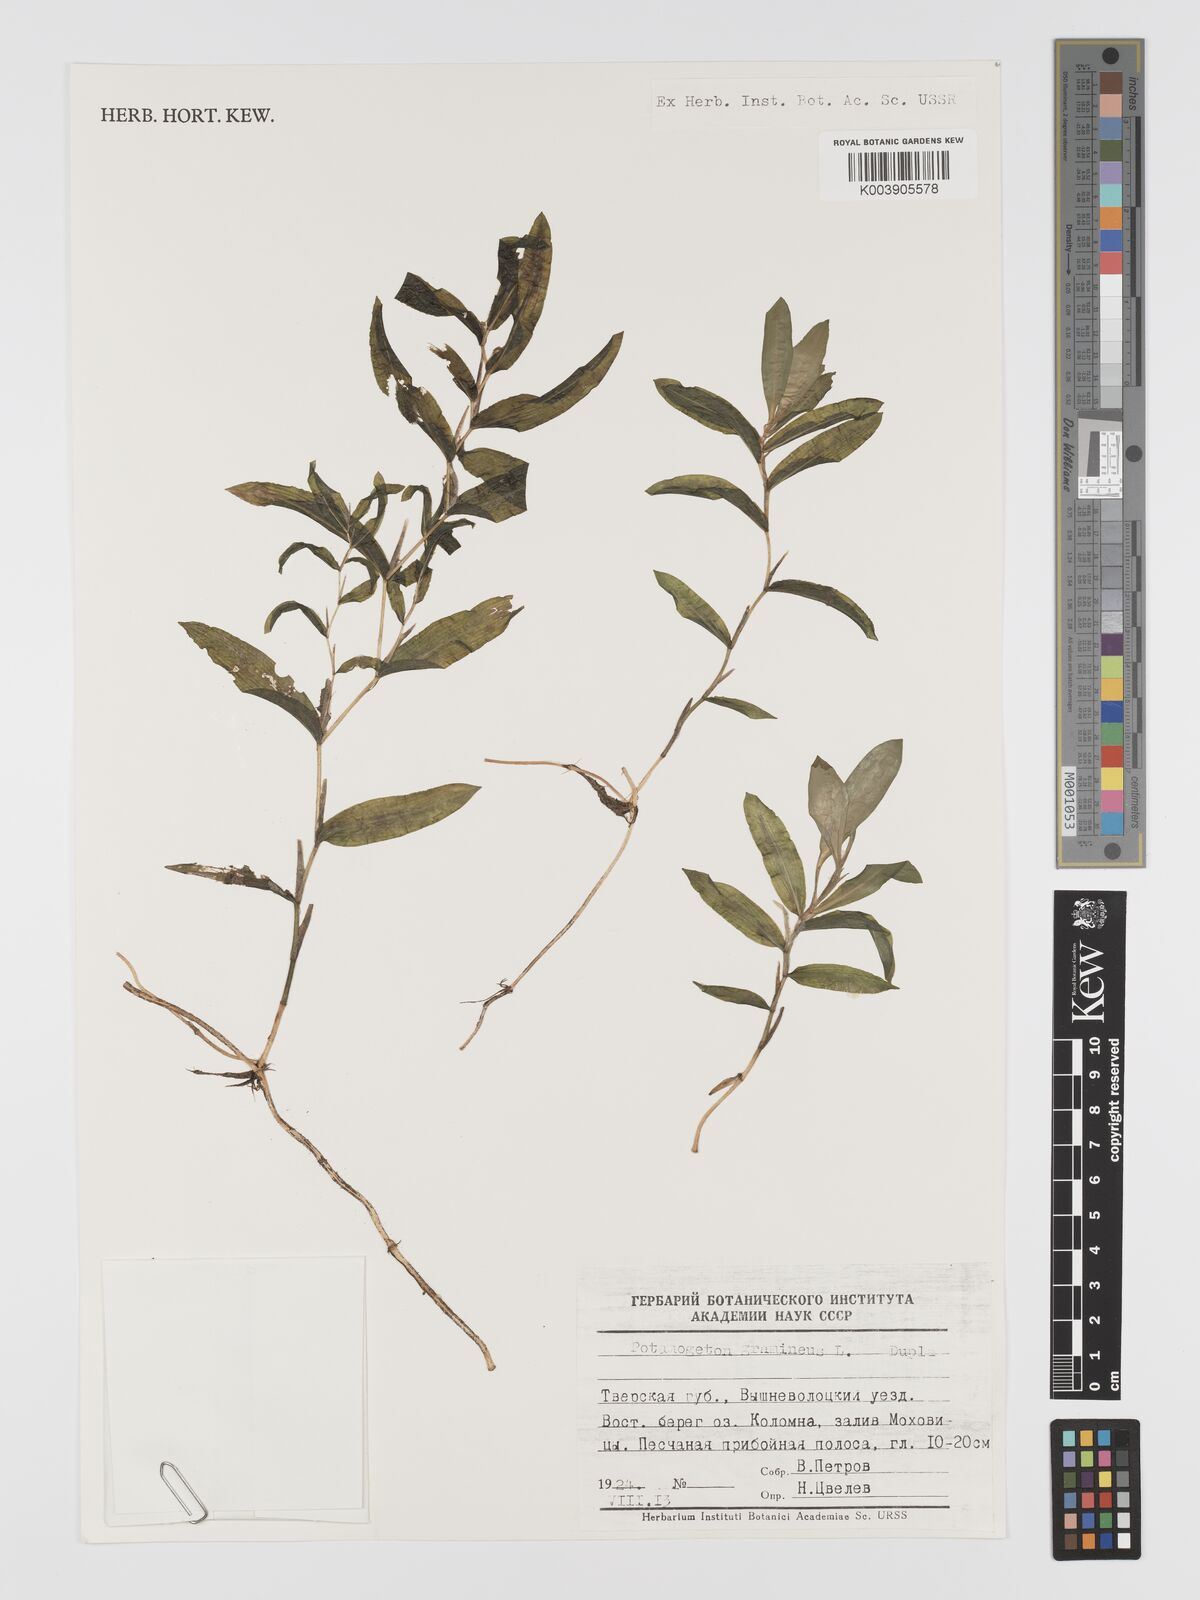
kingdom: Plantae
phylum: Tracheophyta
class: Liliopsida
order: Alismatales
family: Potamogetonaceae
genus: Potamogeton
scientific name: Potamogeton gramineus
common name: Various-leaved pondweed
